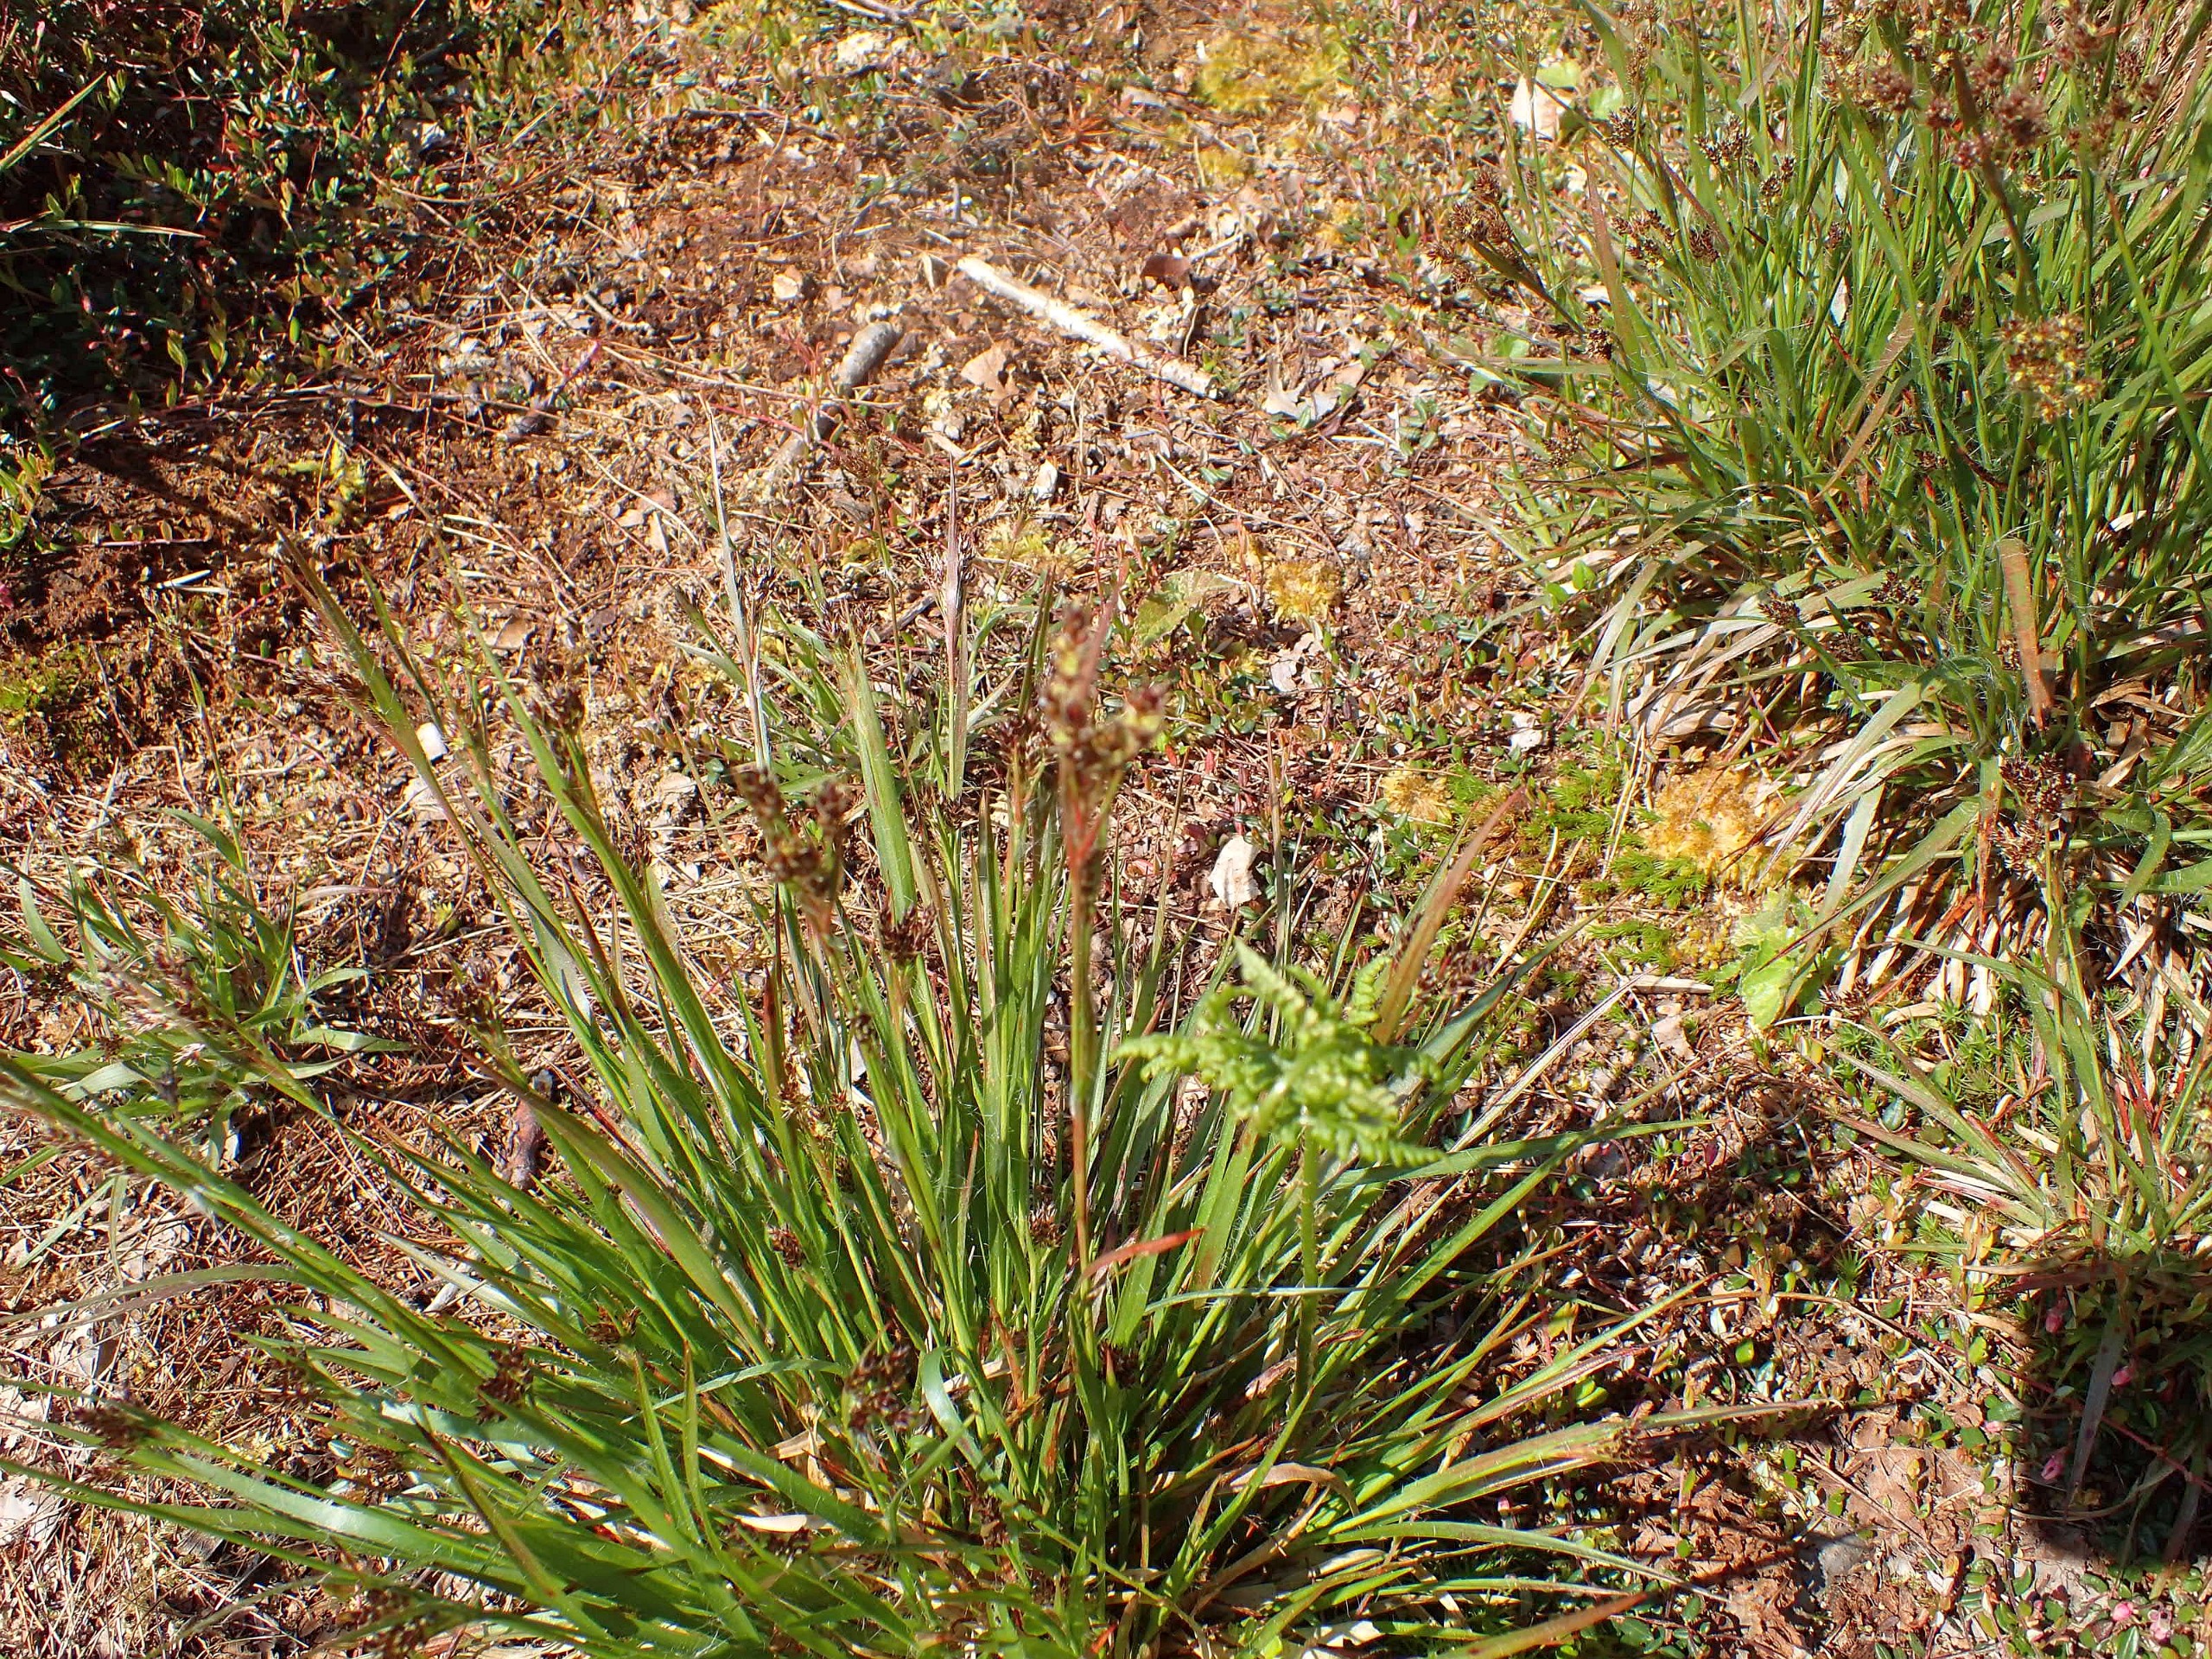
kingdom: Plantae
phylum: Tracheophyta
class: Liliopsida
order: Poales
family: Juncaceae
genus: Luzula
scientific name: Luzula multiflora
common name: Mangeblomstret frytle
